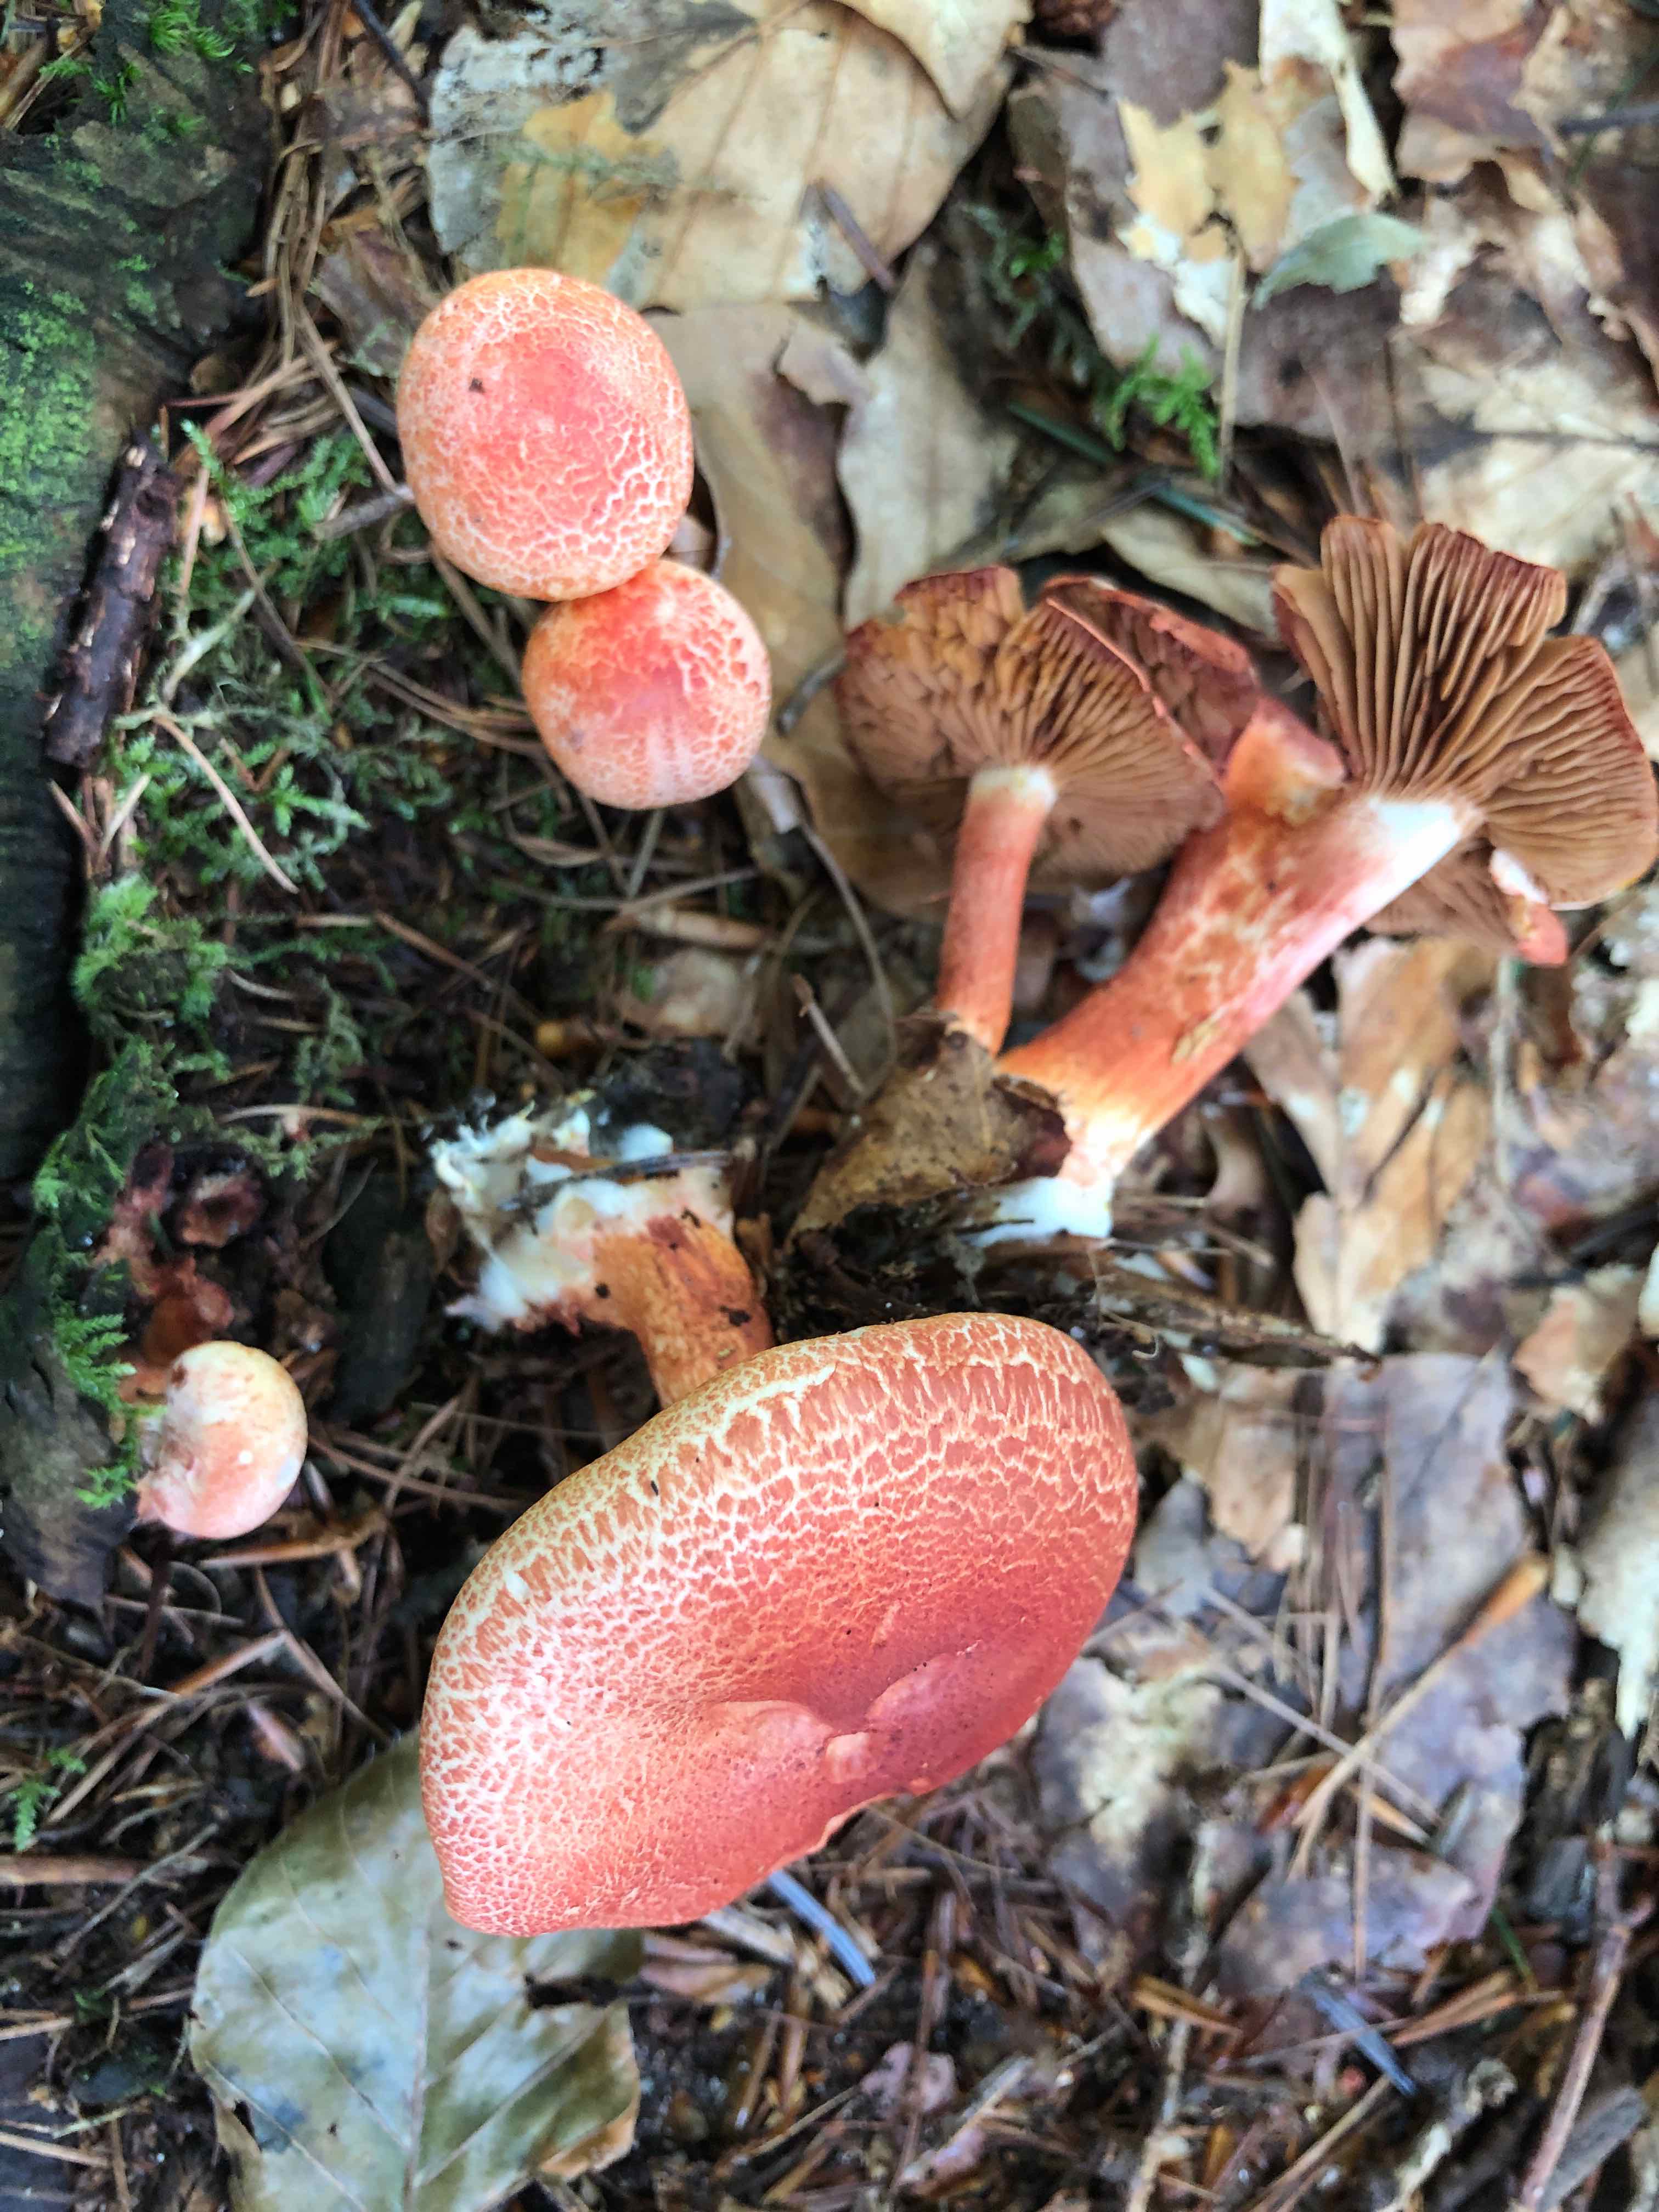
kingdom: Fungi
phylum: Basidiomycota
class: Agaricomycetes
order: Agaricales
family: Cortinariaceae
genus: Cortinarius
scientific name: Cortinarius bolaris
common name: cinnoberskællet slørhat
